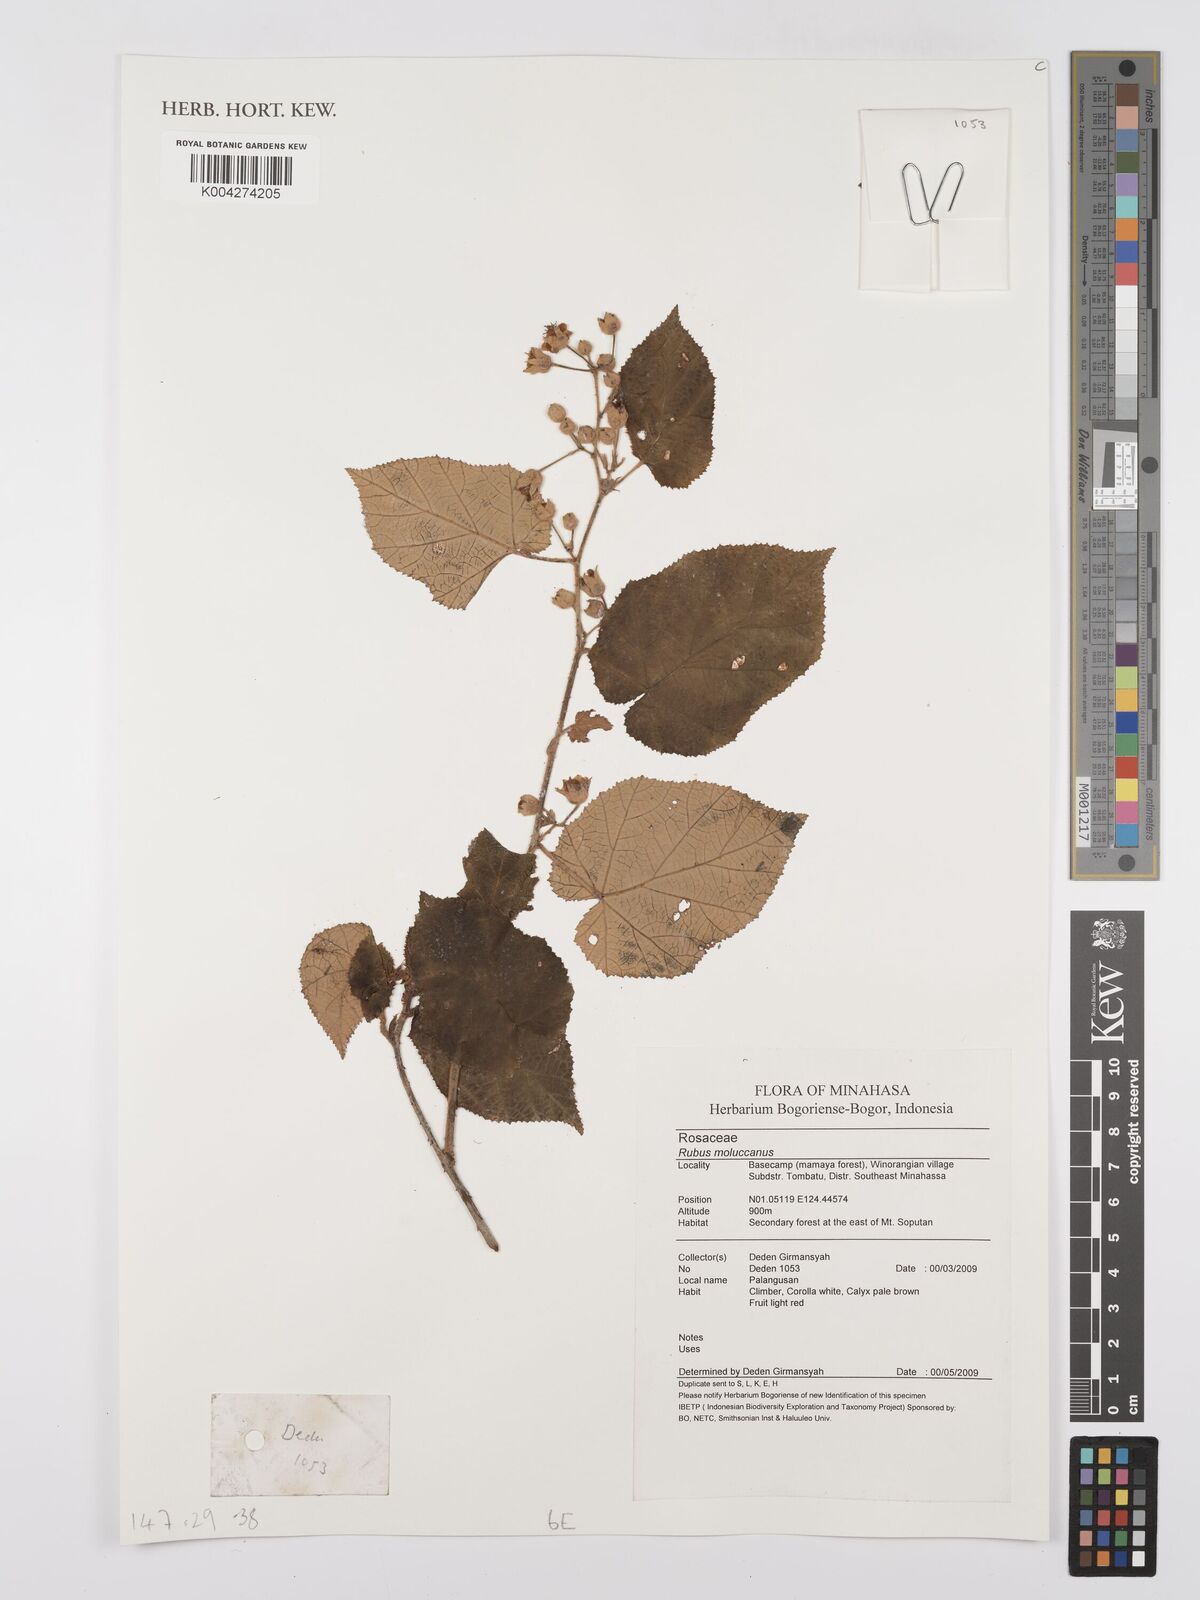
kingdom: Plantae
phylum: Tracheophyta
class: Magnoliopsida
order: Rosales
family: Rosaceae
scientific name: Rosaceae
